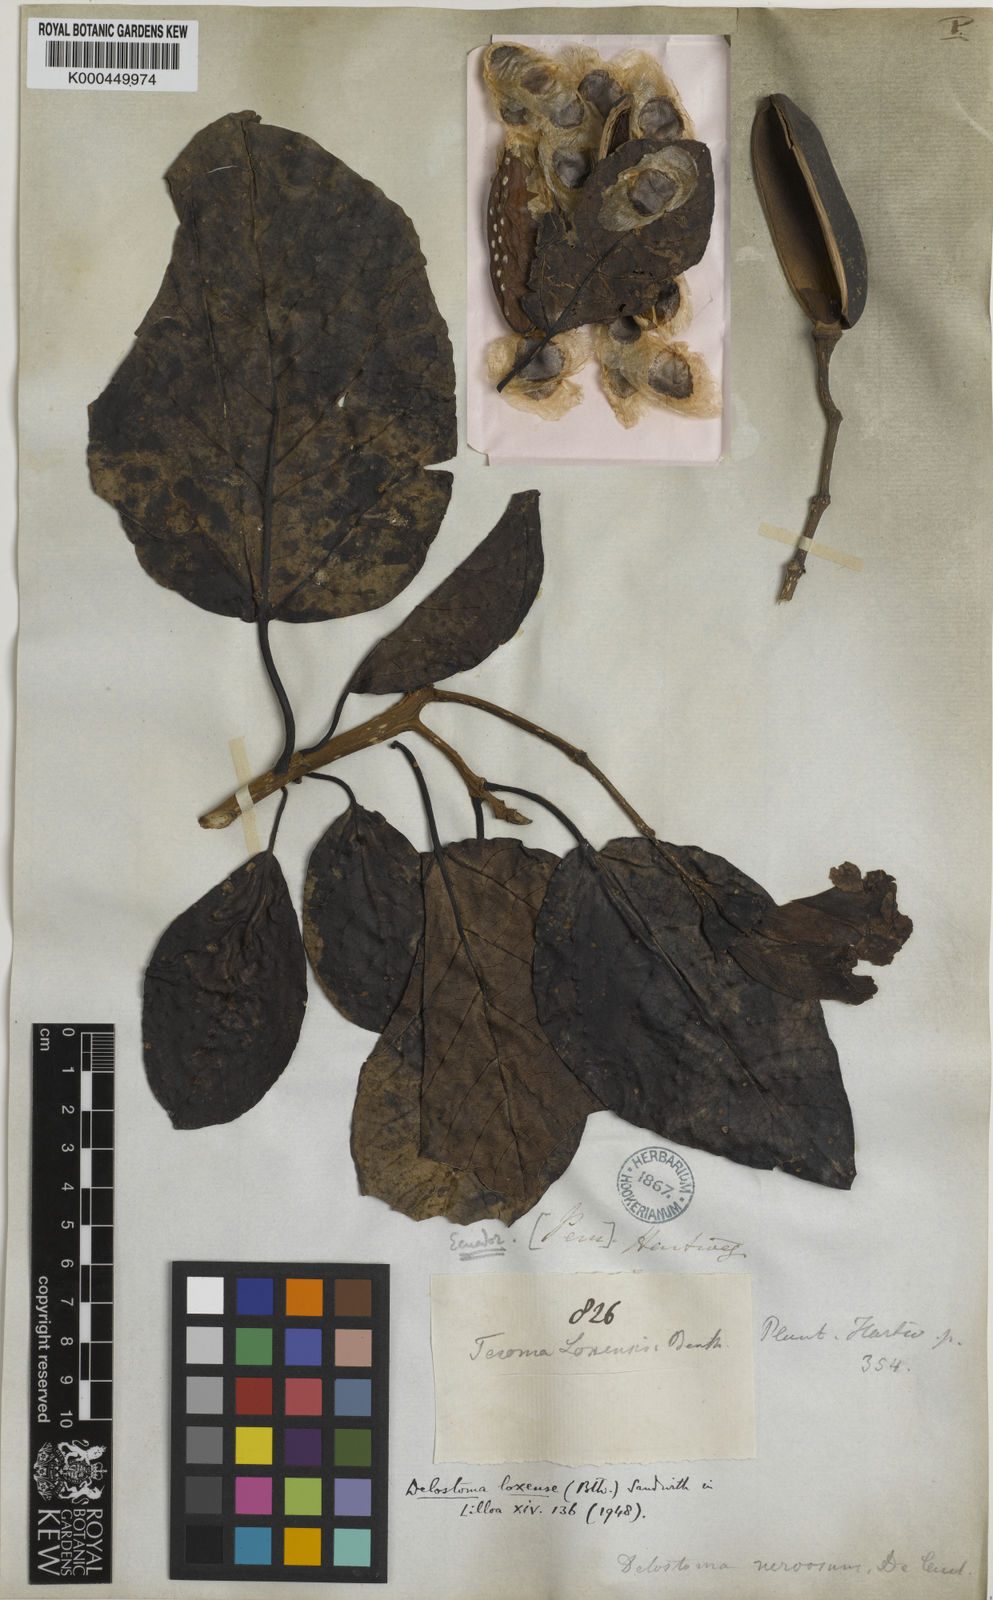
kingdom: Plantae
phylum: Tracheophyta
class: Magnoliopsida
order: Lamiales
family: Bignoniaceae
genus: Delostoma
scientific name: Delostoma integrifolium
